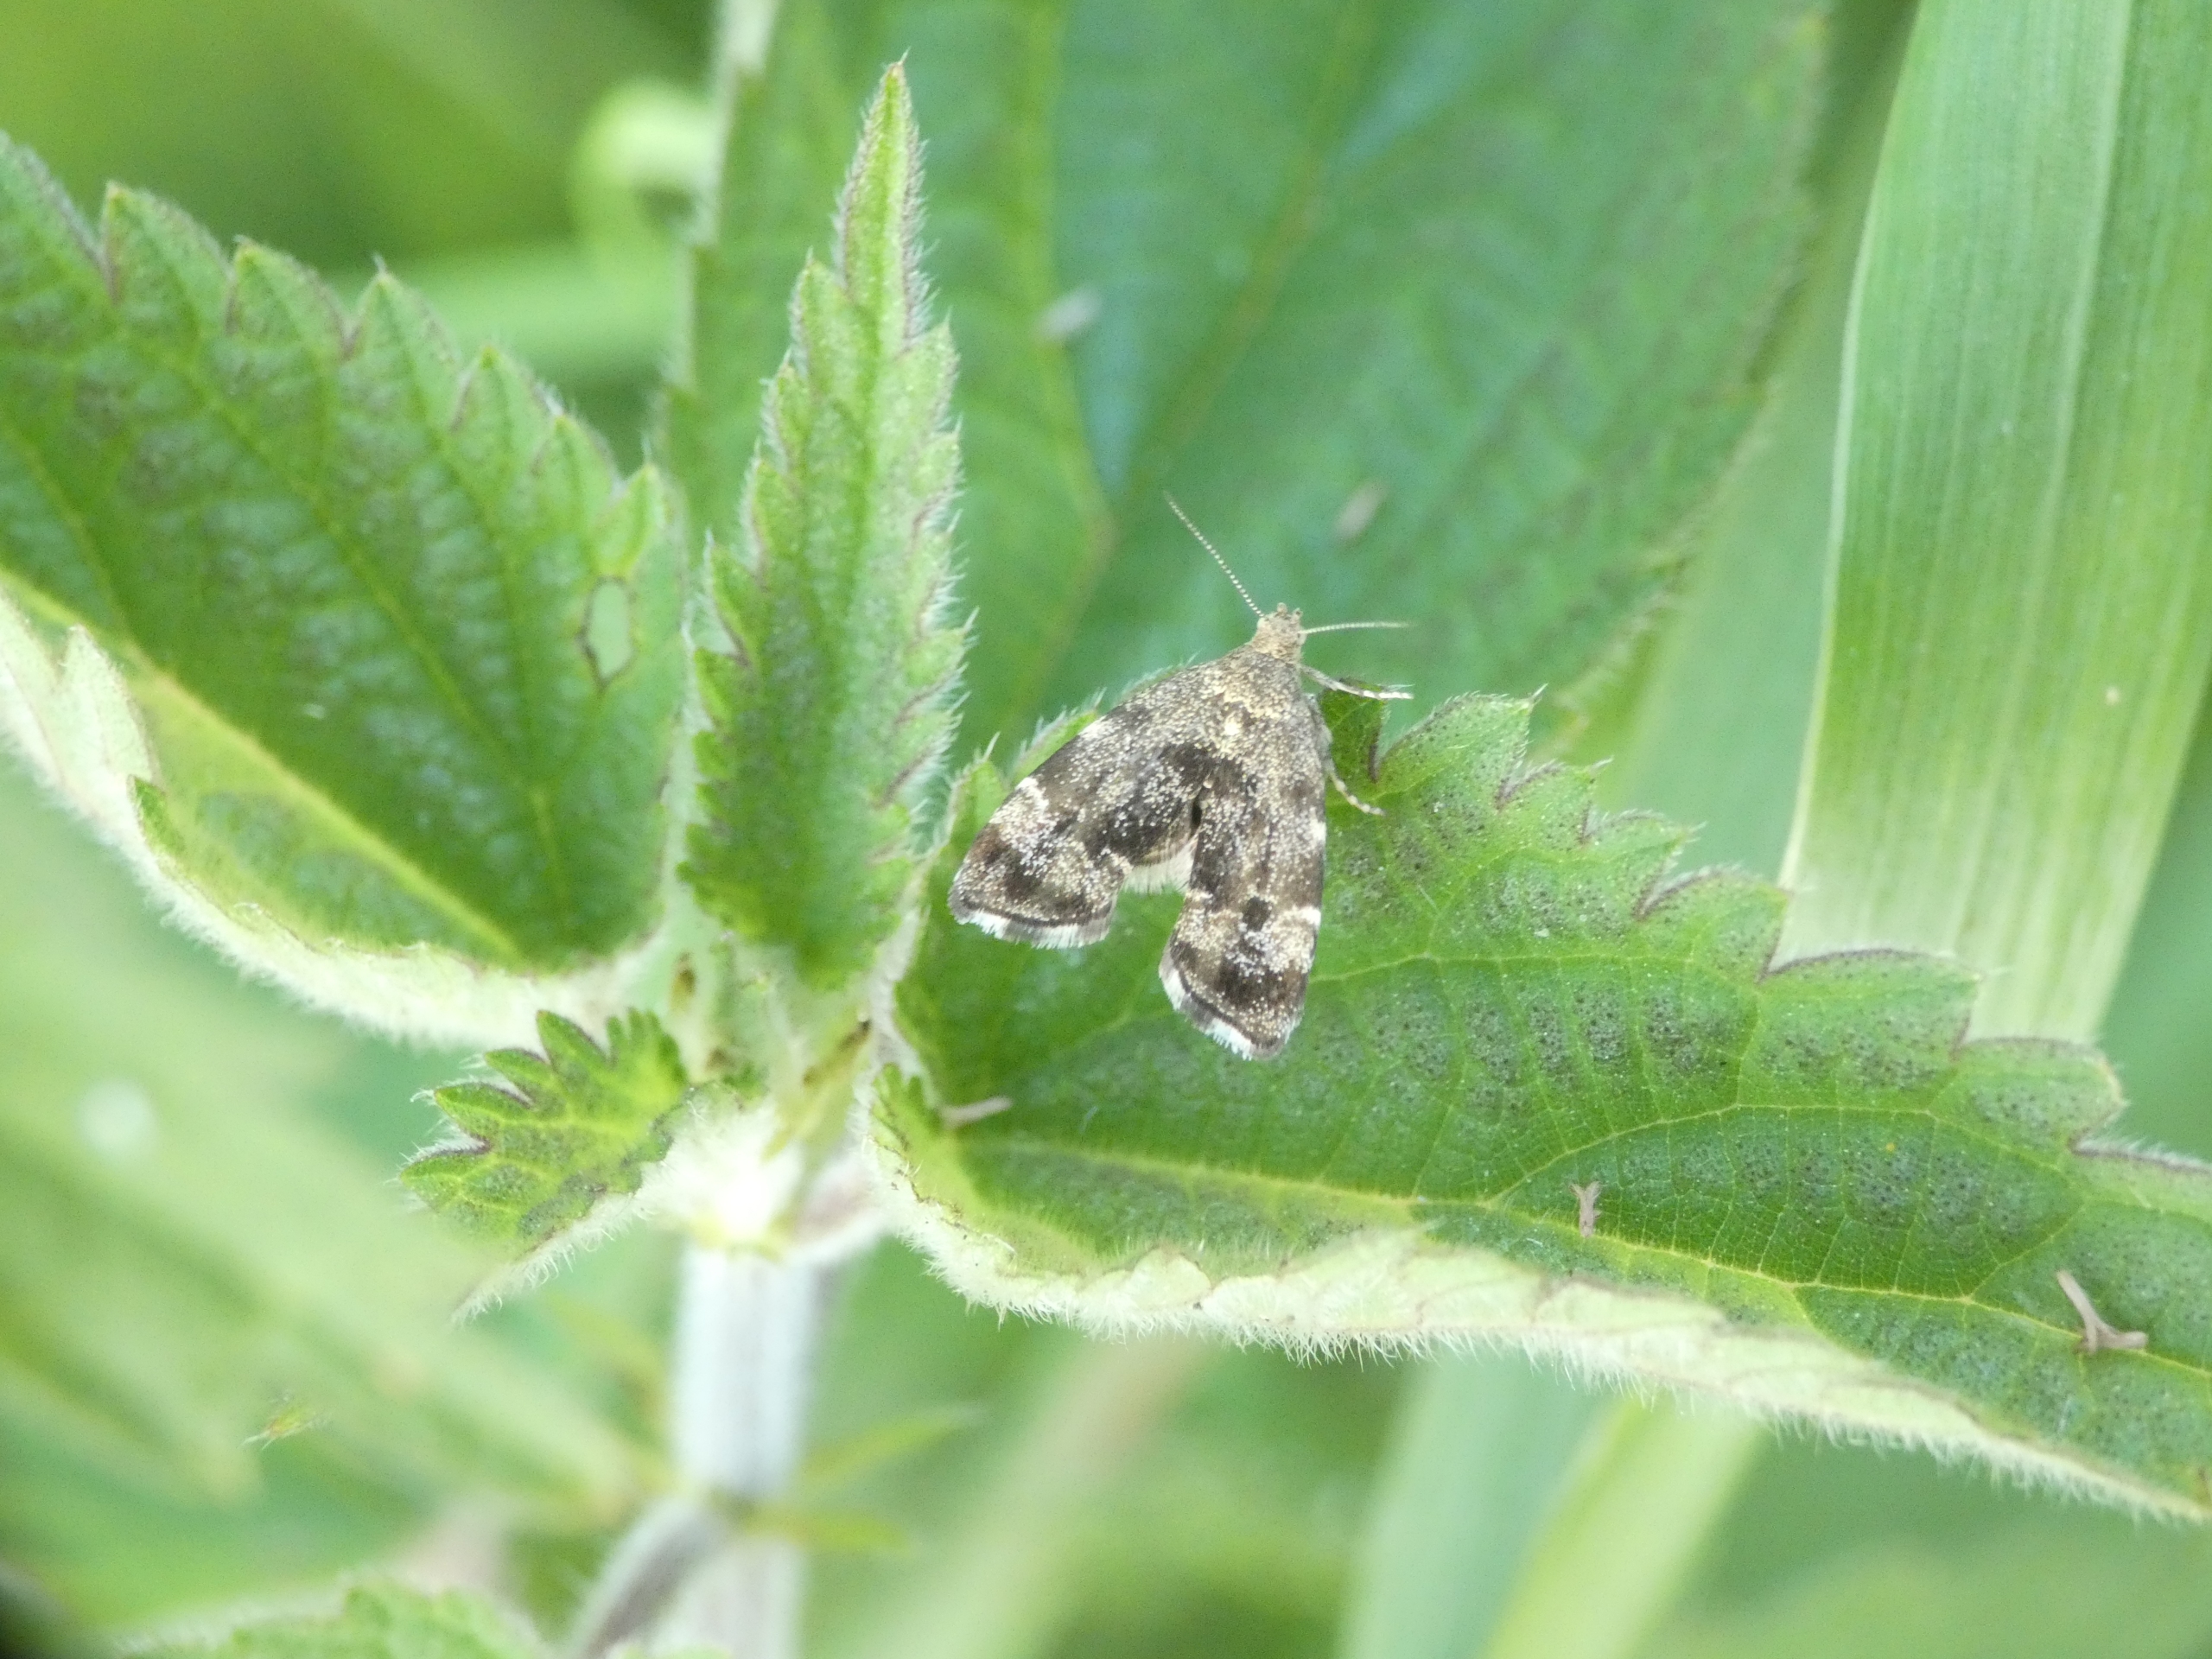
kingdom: Animalia
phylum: Arthropoda
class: Insecta
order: Lepidoptera
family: Choreutidae
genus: Anthophila
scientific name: Anthophila fabriciana
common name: Bredvinget nældevikler
